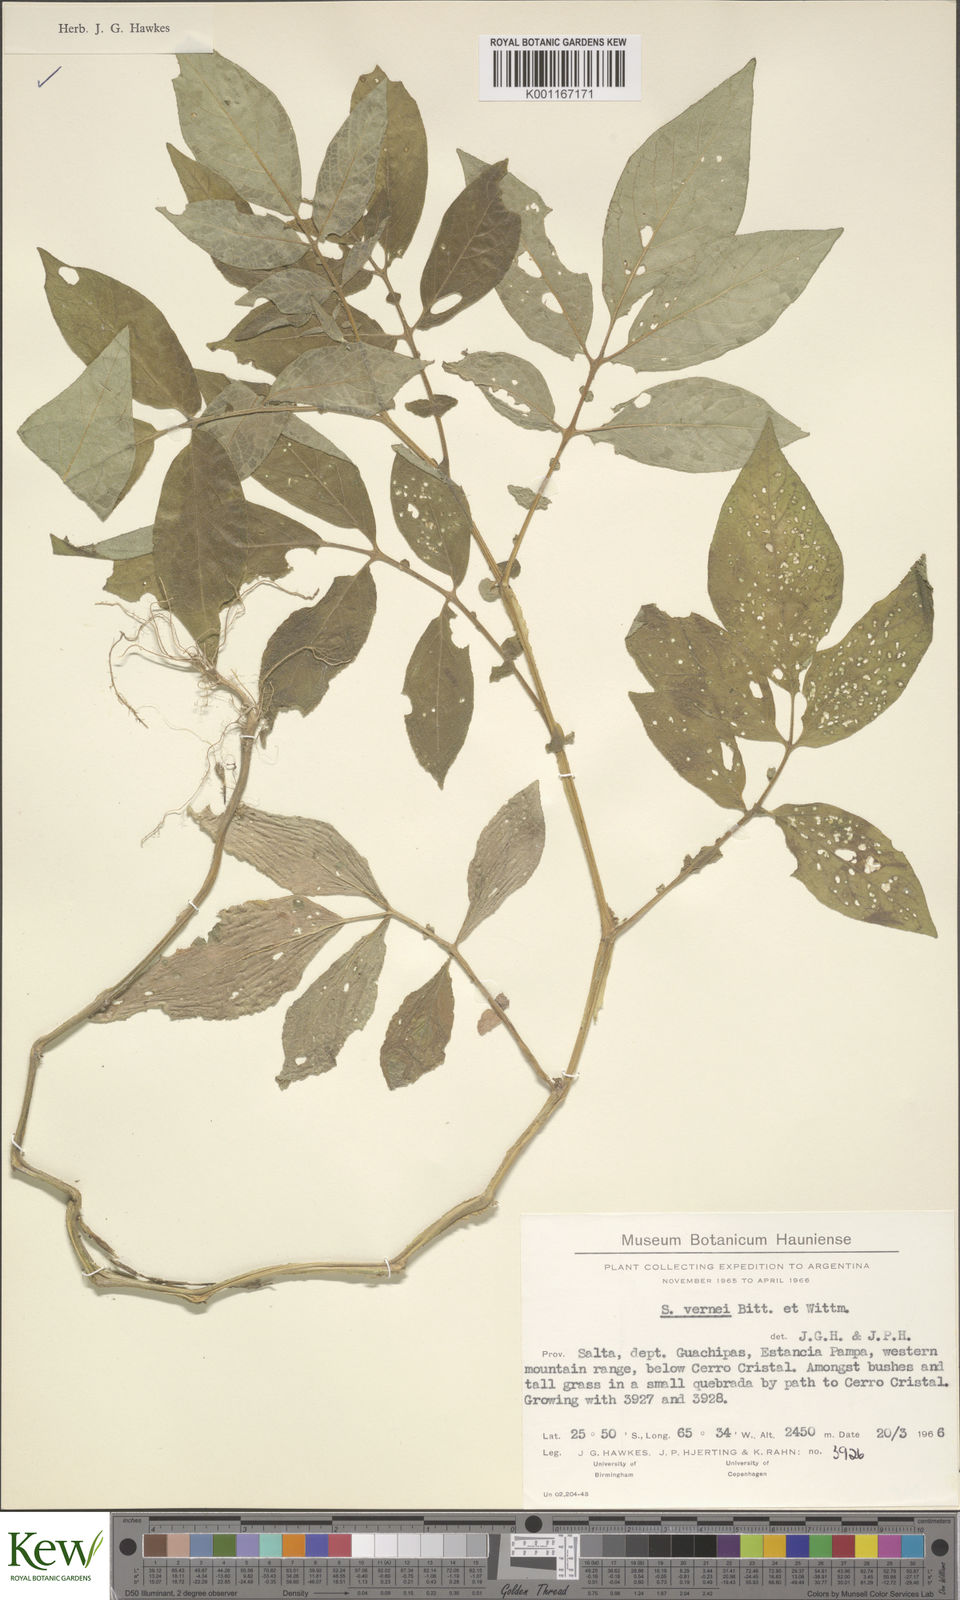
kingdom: Plantae
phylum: Tracheophyta
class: Magnoliopsida
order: Solanales
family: Solanaceae
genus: Solanum
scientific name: Solanum vernei
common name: Purple potato
